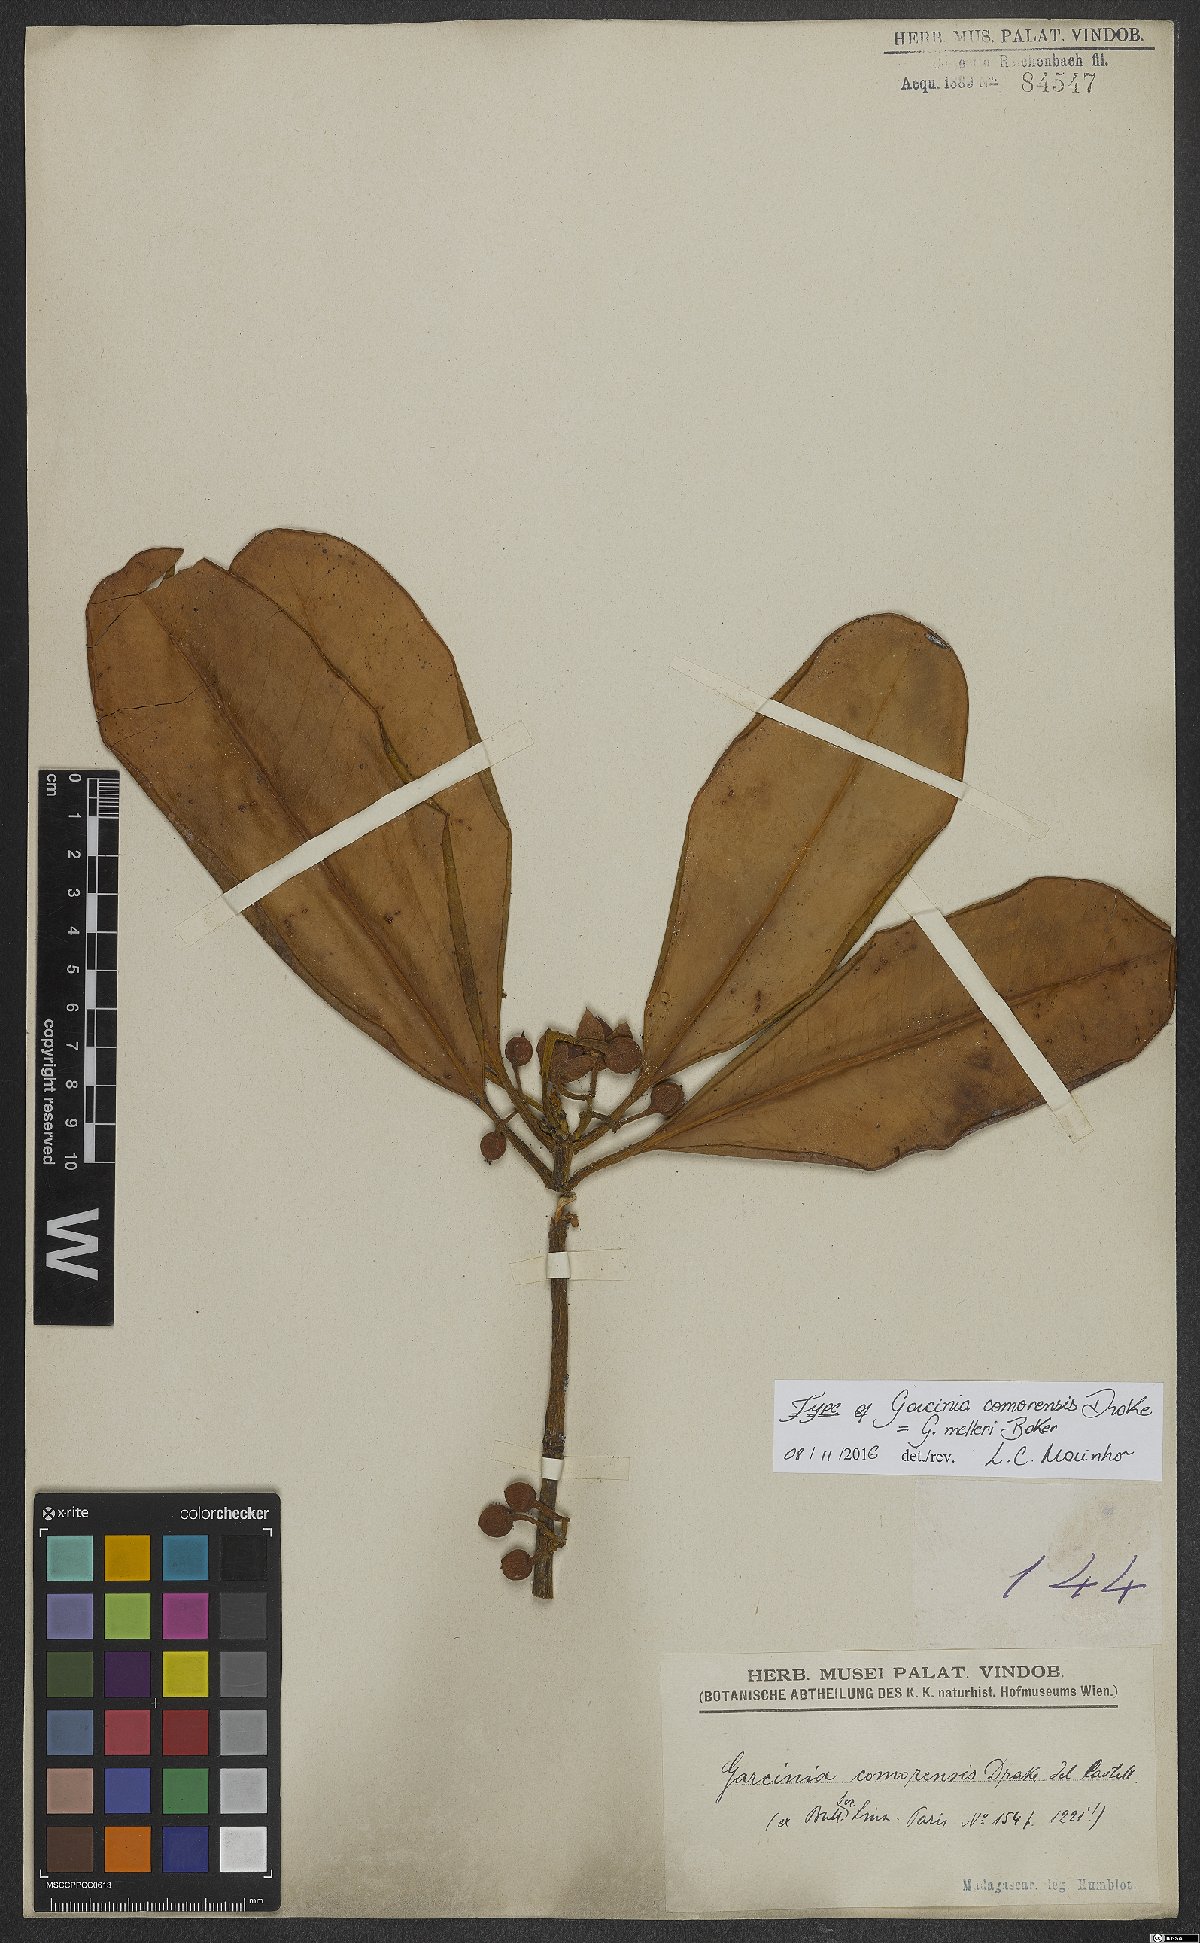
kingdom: Plantae
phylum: Tracheophyta
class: Magnoliopsida
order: Malpighiales
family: Clusiaceae
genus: Garcinia
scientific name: Garcinia goudotiana
